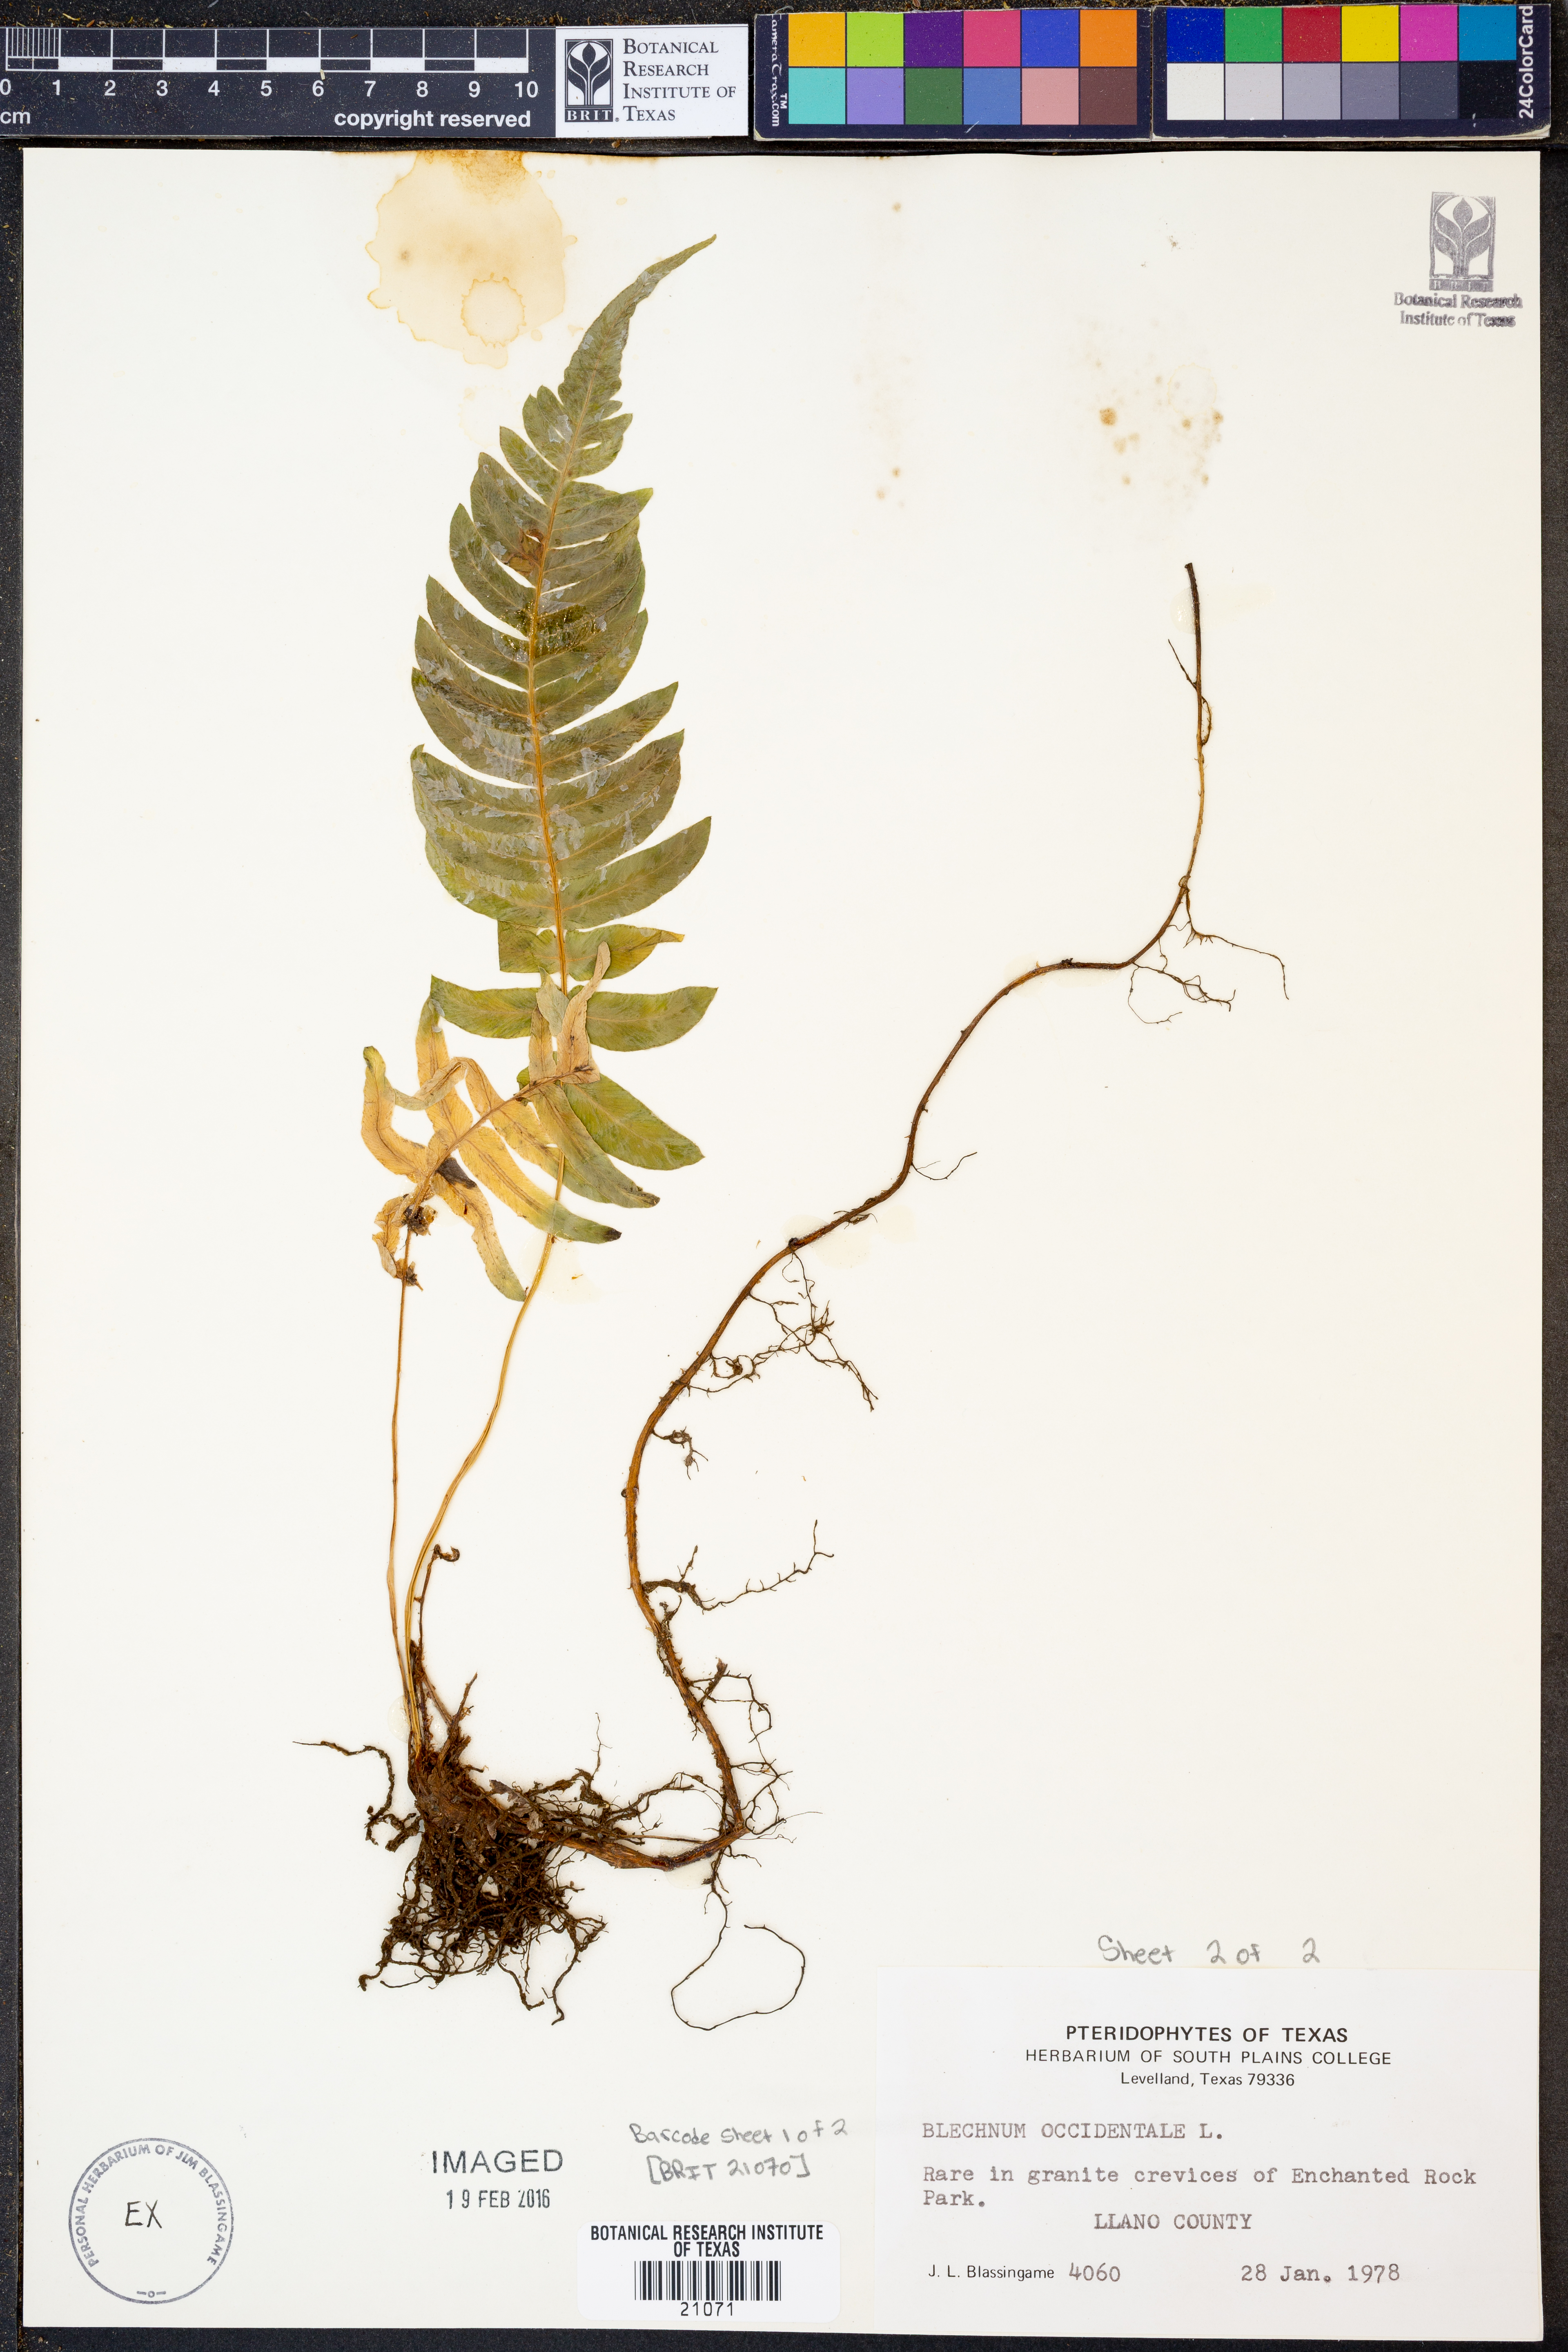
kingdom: Plantae
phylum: Tracheophyta
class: Polypodiopsida
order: Polypodiales
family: Blechnaceae
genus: Blechnum
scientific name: Blechnum occidentale
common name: Hammock fern
